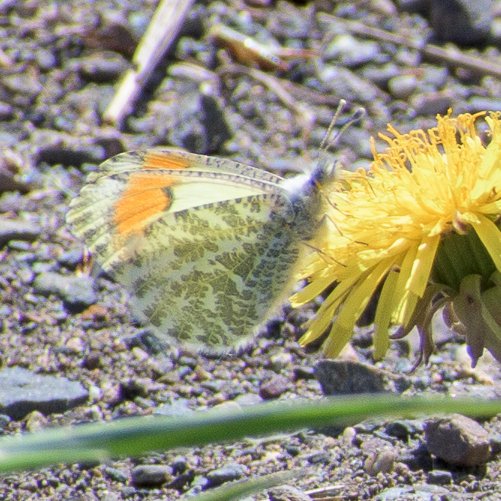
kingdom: Animalia
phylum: Arthropoda
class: Insecta
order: Lepidoptera
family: Pieridae
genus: Anthocharis
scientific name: Anthocharis
